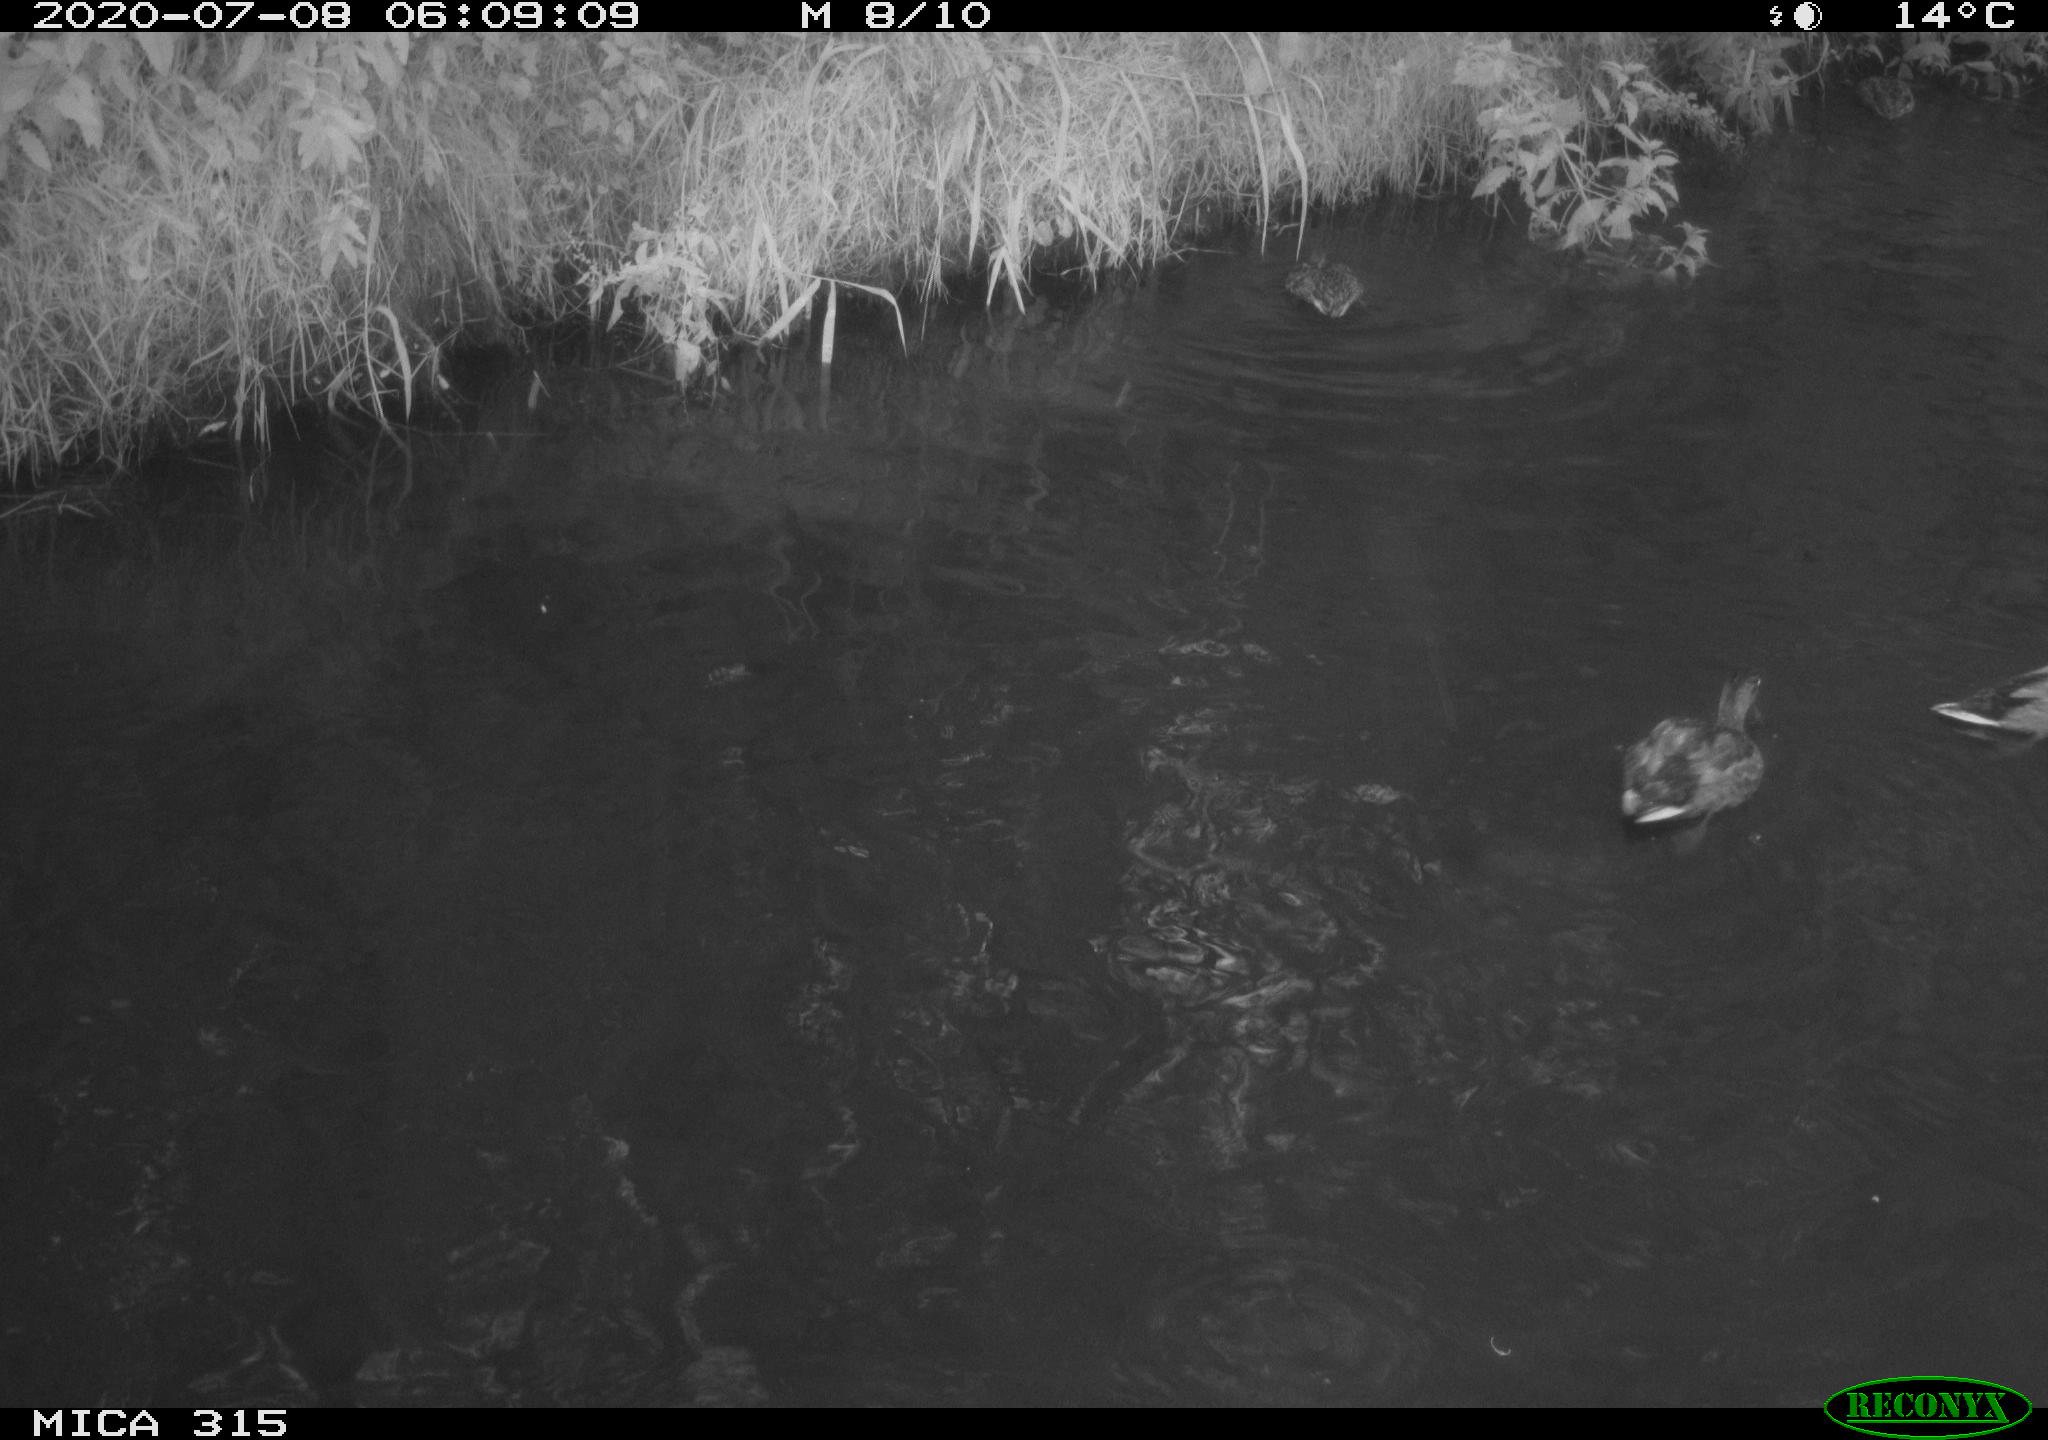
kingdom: Animalia
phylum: Chordata
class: Aves
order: Anseriformes
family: Anatidae
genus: Anas
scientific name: Anas platyrhynchos
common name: Mallard
